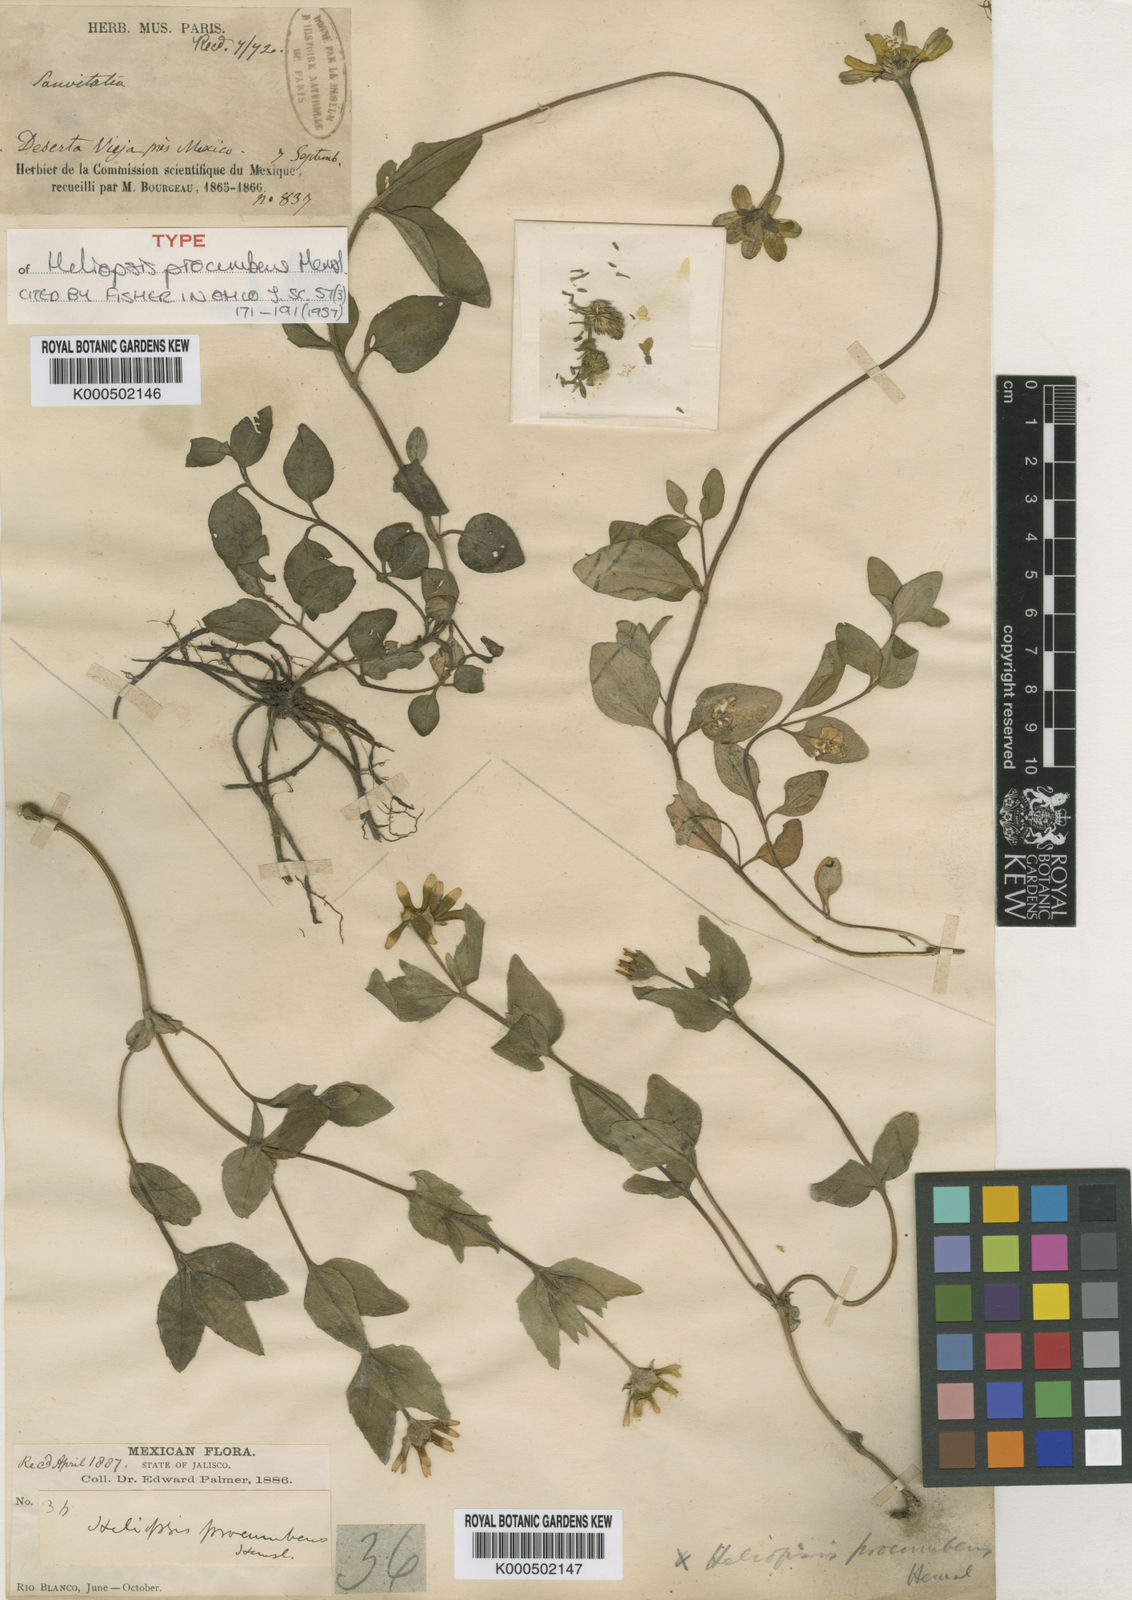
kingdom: Plantae
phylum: Tracheophyta
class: Magnoliopsida
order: Asterales
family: Asteraceae
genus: Heliopsis
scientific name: Heliopsis procumbens
